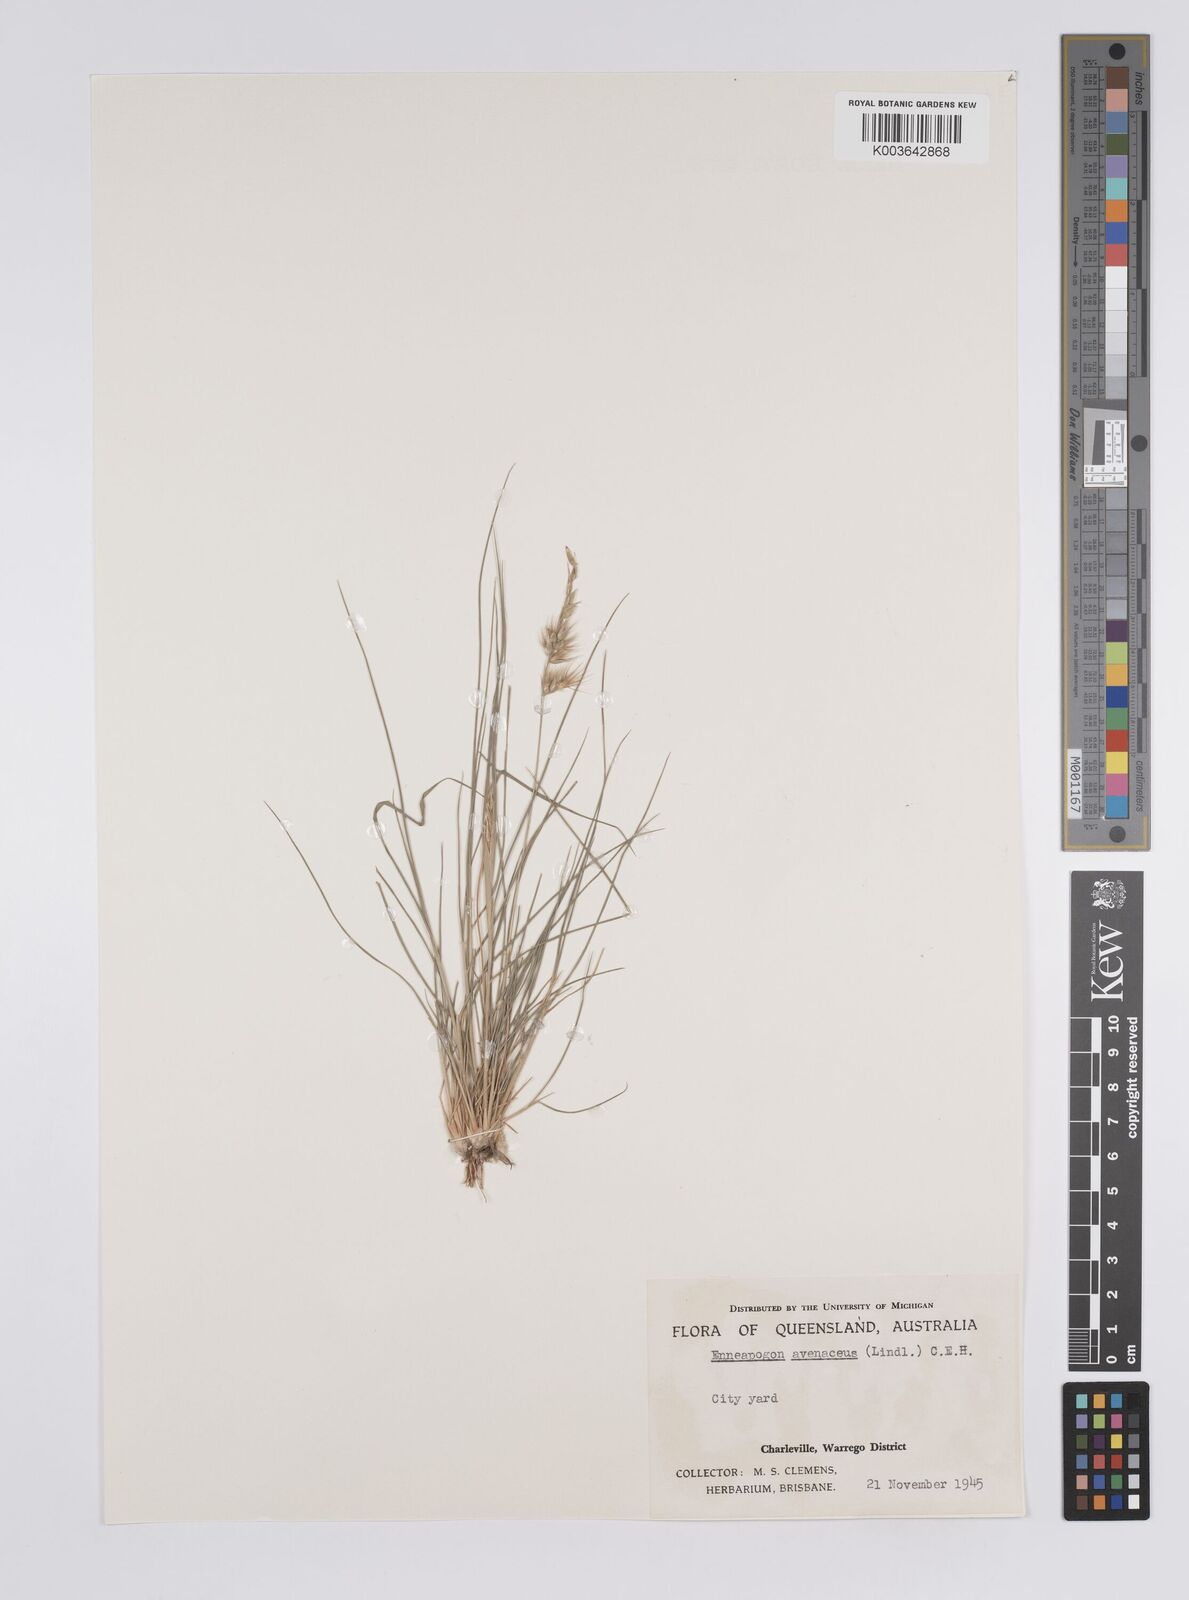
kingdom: Plantae
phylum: Tracheophyta
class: Liliopsida
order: Poales
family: Poaceae
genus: Enneapogon
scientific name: Enneapogon avenaceus
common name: Hairy oat grass
